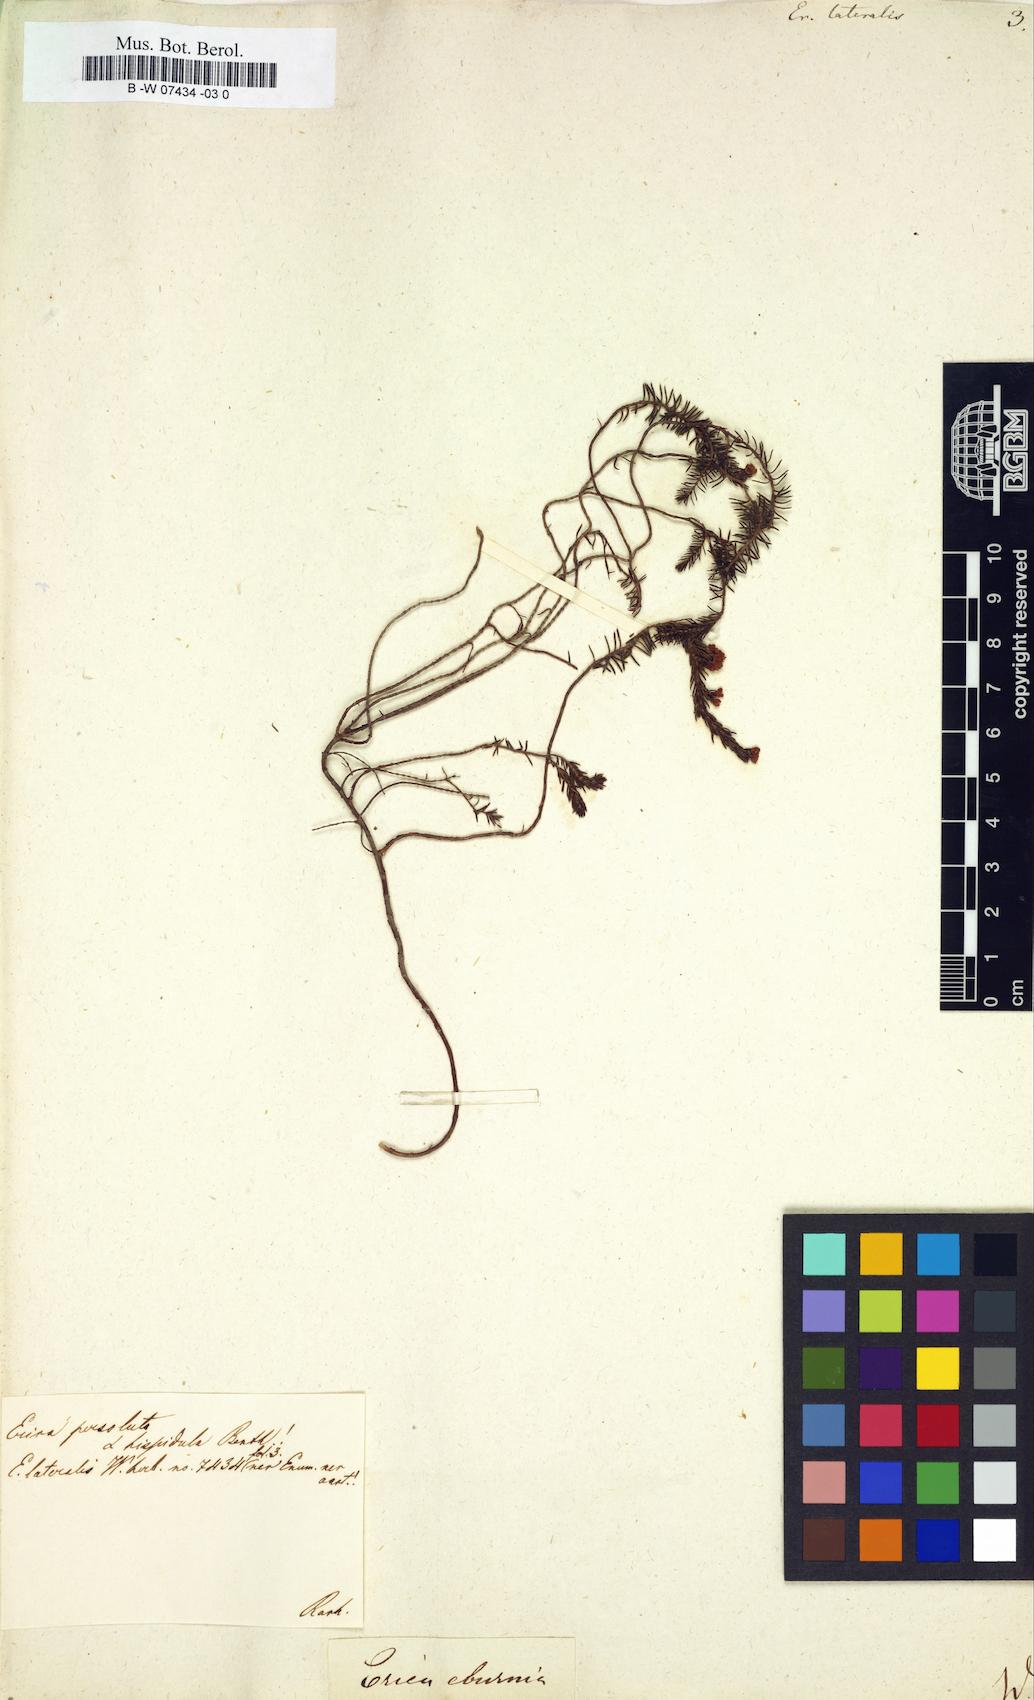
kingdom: Plantae
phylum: Tracheophyta
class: Magnoliopsida
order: Ericales
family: Ericaceae
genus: Erica
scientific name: Erica lateralis
